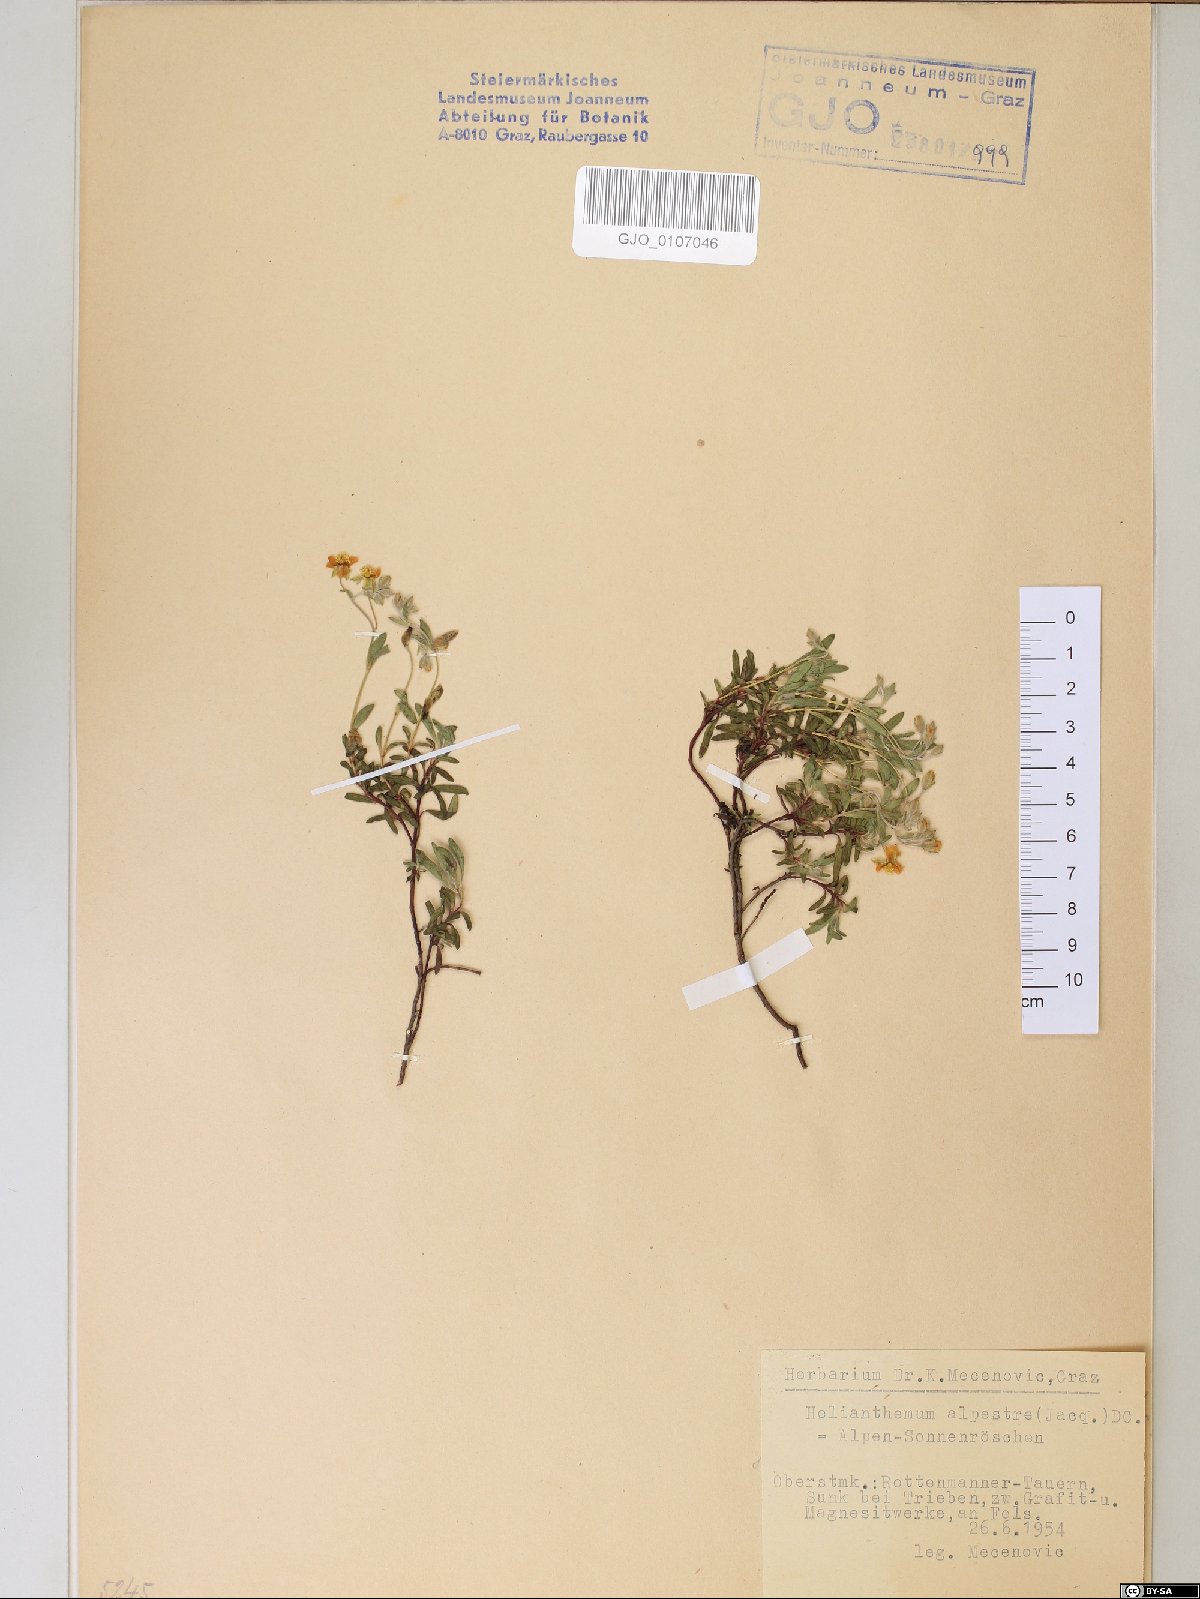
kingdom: Plantae
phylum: Tracheophyta
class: Magnoliopsida
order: Malvales
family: Cistaceae
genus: Helianthemum
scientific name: Helianthemum alpestre
